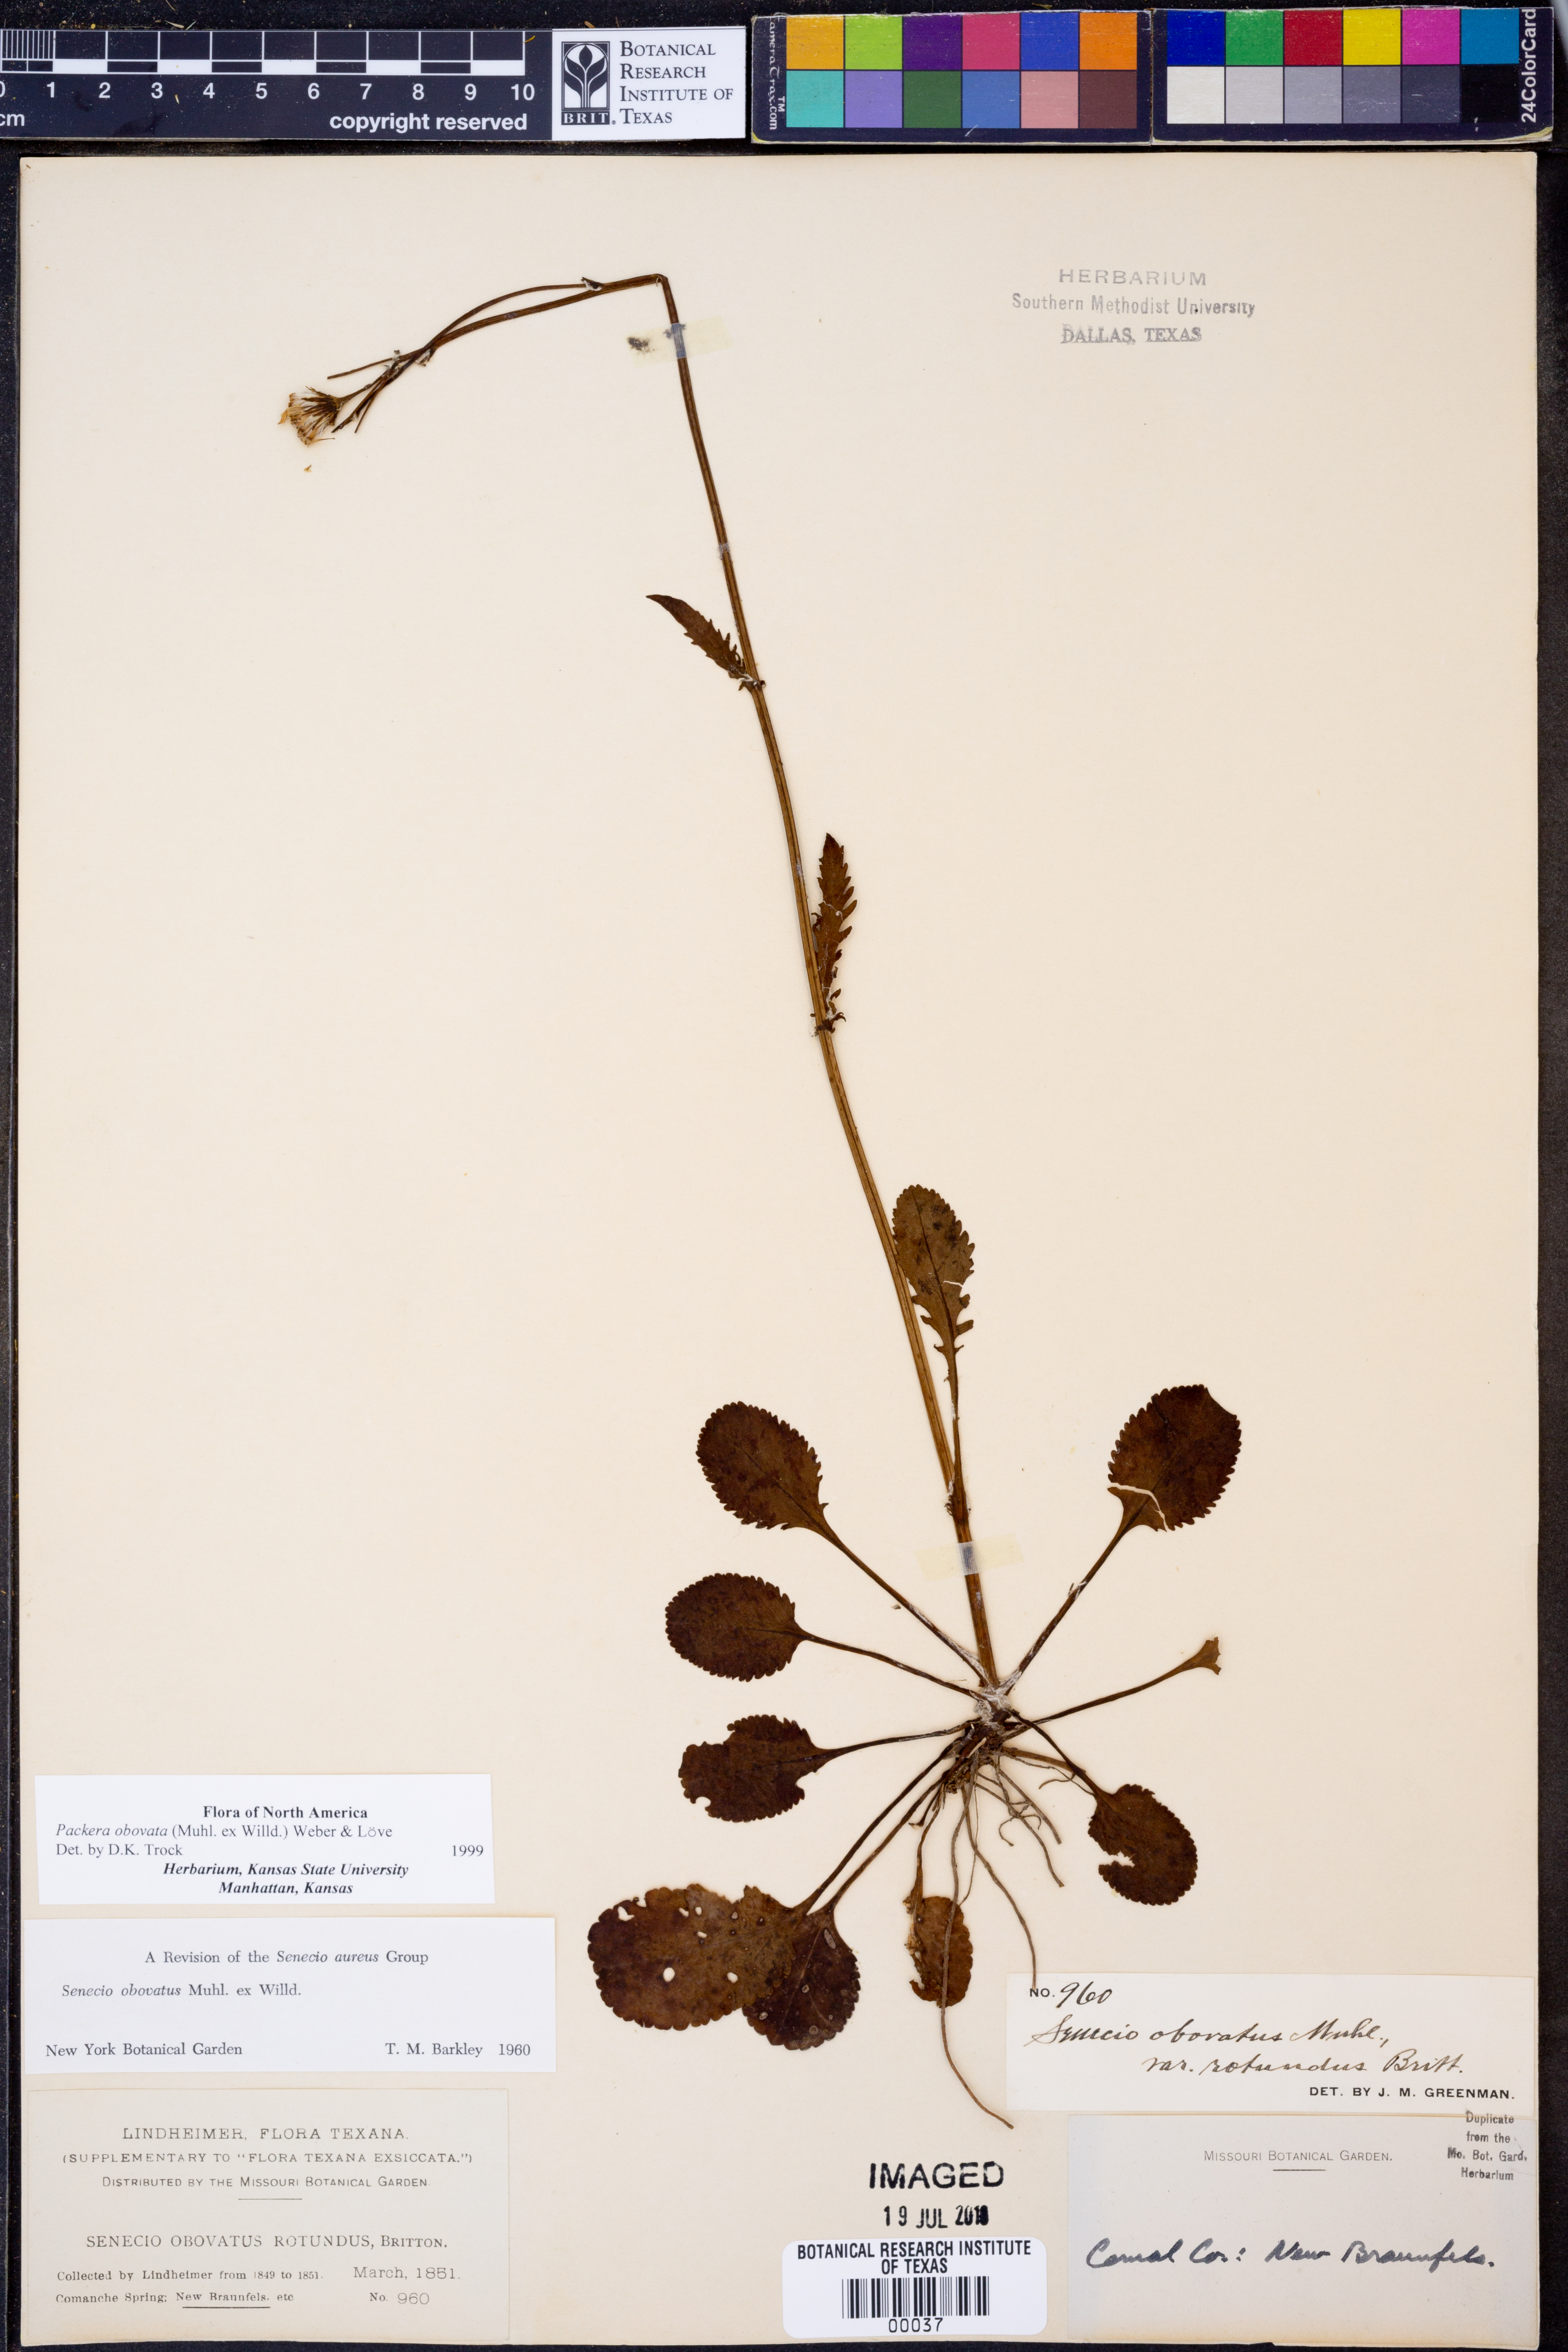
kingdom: Plantae
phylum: Tracheophyta
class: Magnoliopsida
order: Asterales
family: Asteraceae
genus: Packera
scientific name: Packera obovata
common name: Round-leaf ragwort
